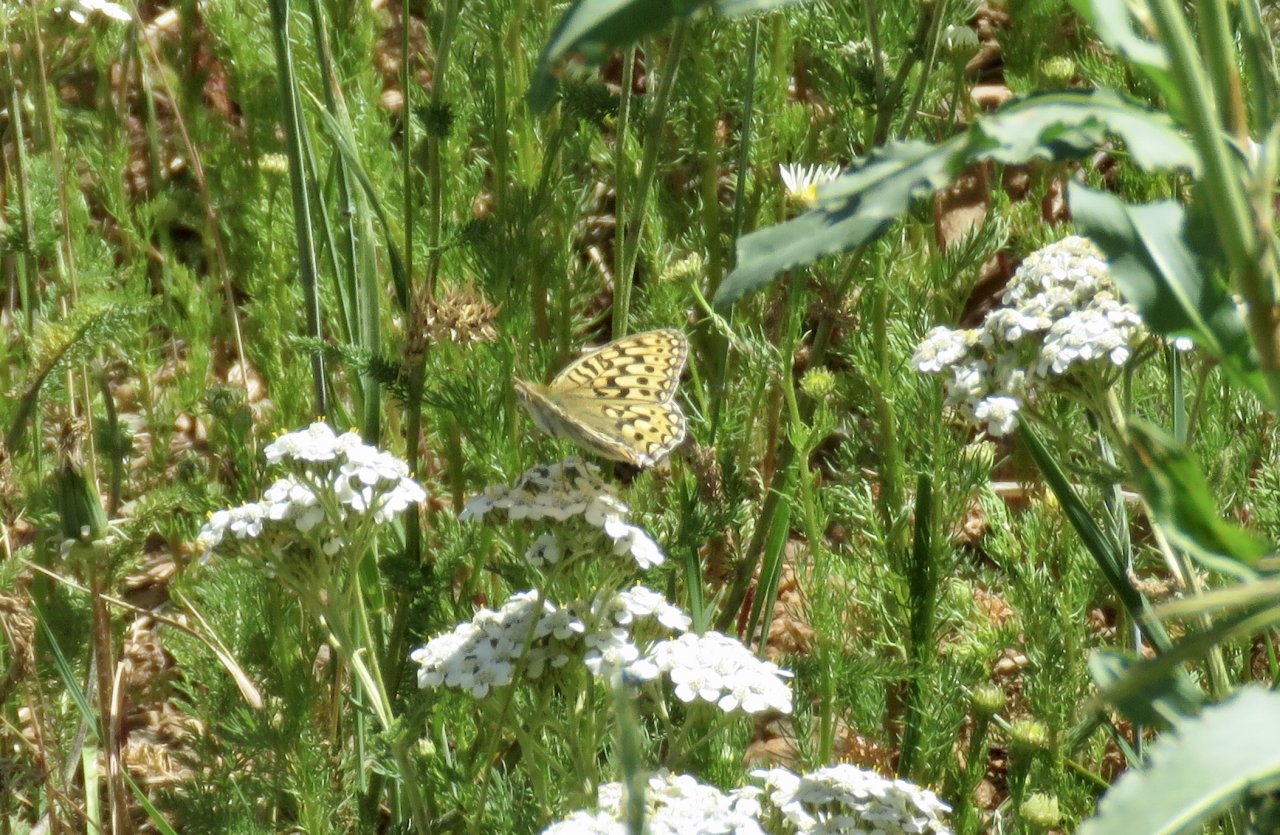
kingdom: Animalia
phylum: Arthropoda
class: Insecta
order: Lepidoptera
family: Nymphalidae
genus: Speyeria
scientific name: Speyeria mormonia
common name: Mormon Fritillary
